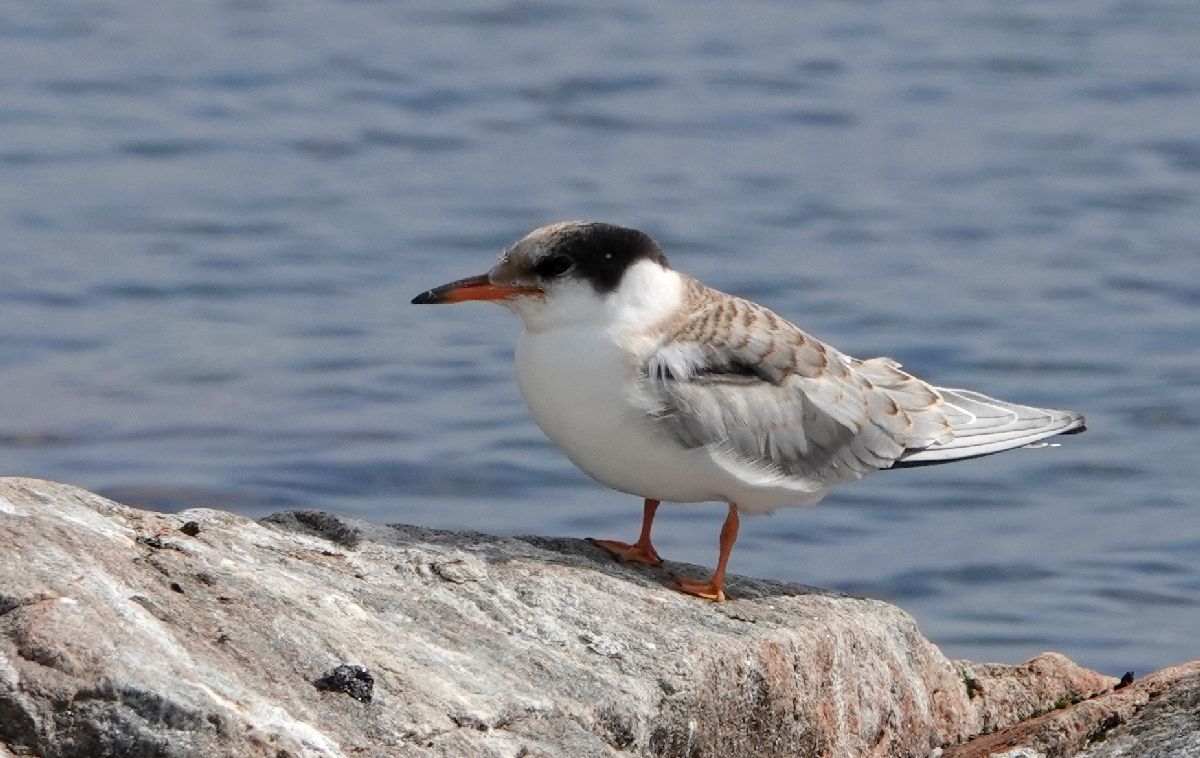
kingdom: Animalia
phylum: Chordata
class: Aves
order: Charadriiformes
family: Laridae
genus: Sterna
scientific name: Sterna hirundo
